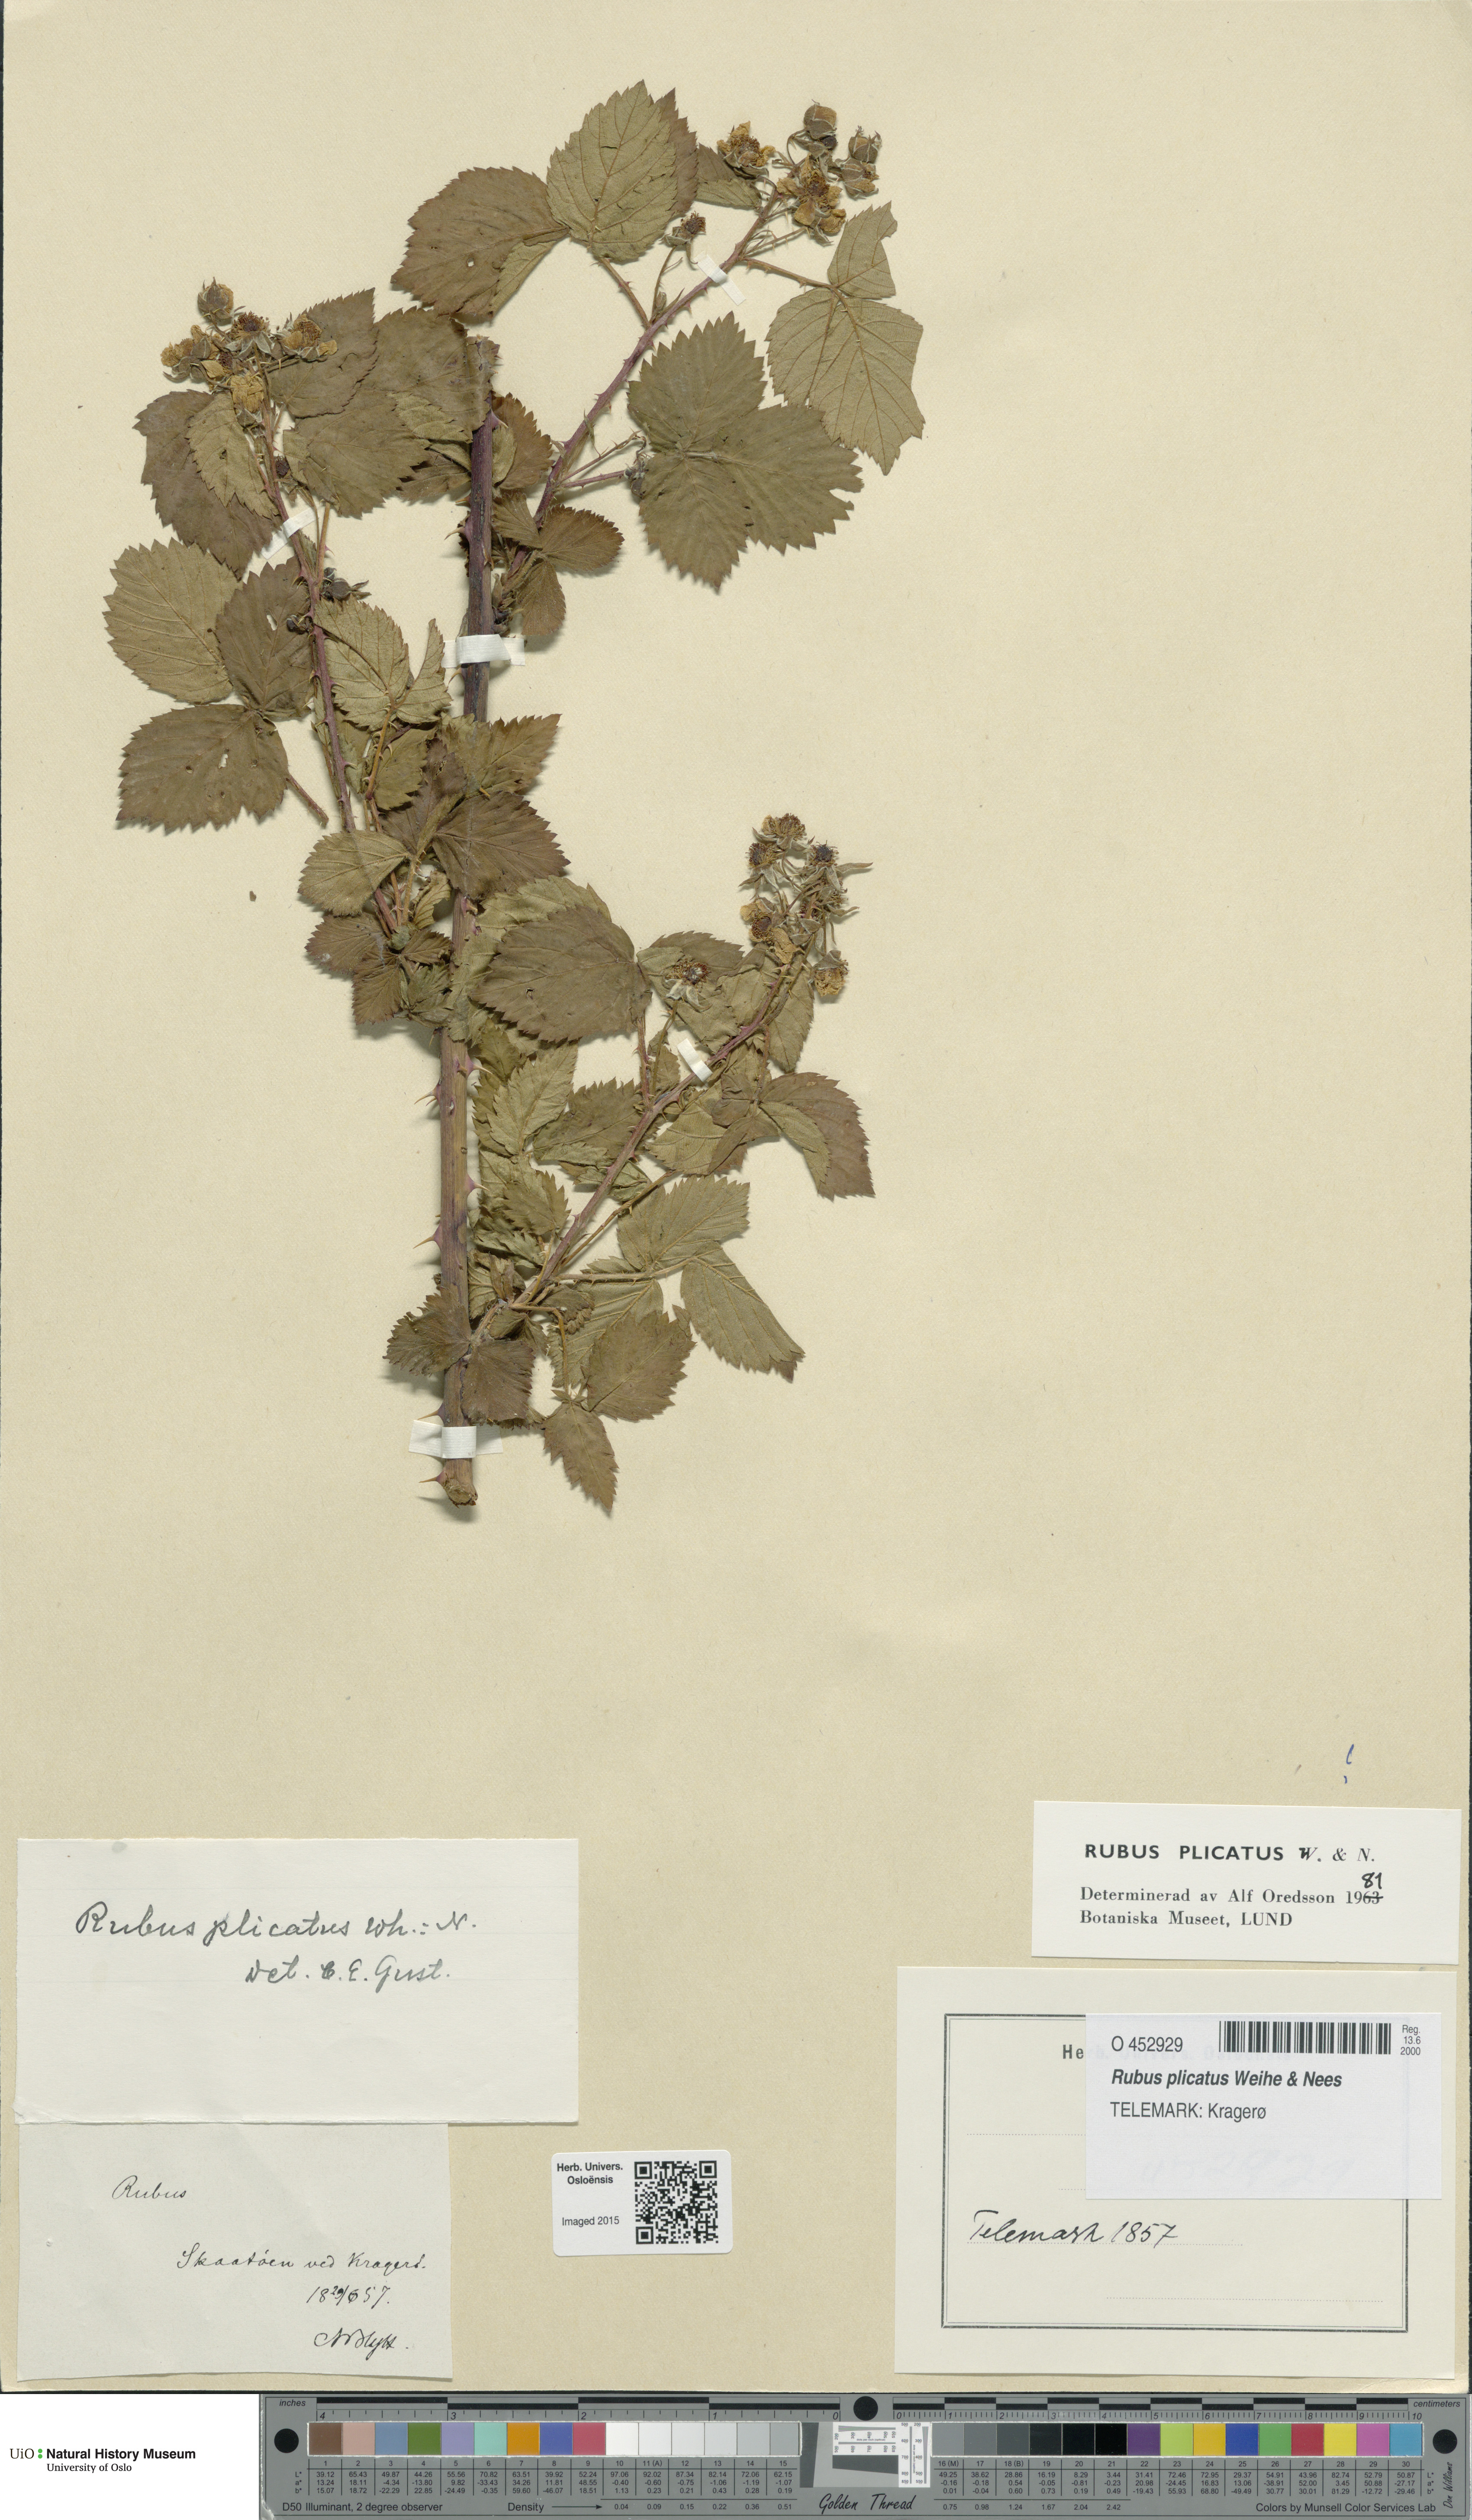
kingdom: Plantae
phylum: Tracheophyta
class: Magnoliopsida
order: Rosales
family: Rosaceae
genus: Rubus
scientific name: Rubus fruticosus
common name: Blackberry, bramble
